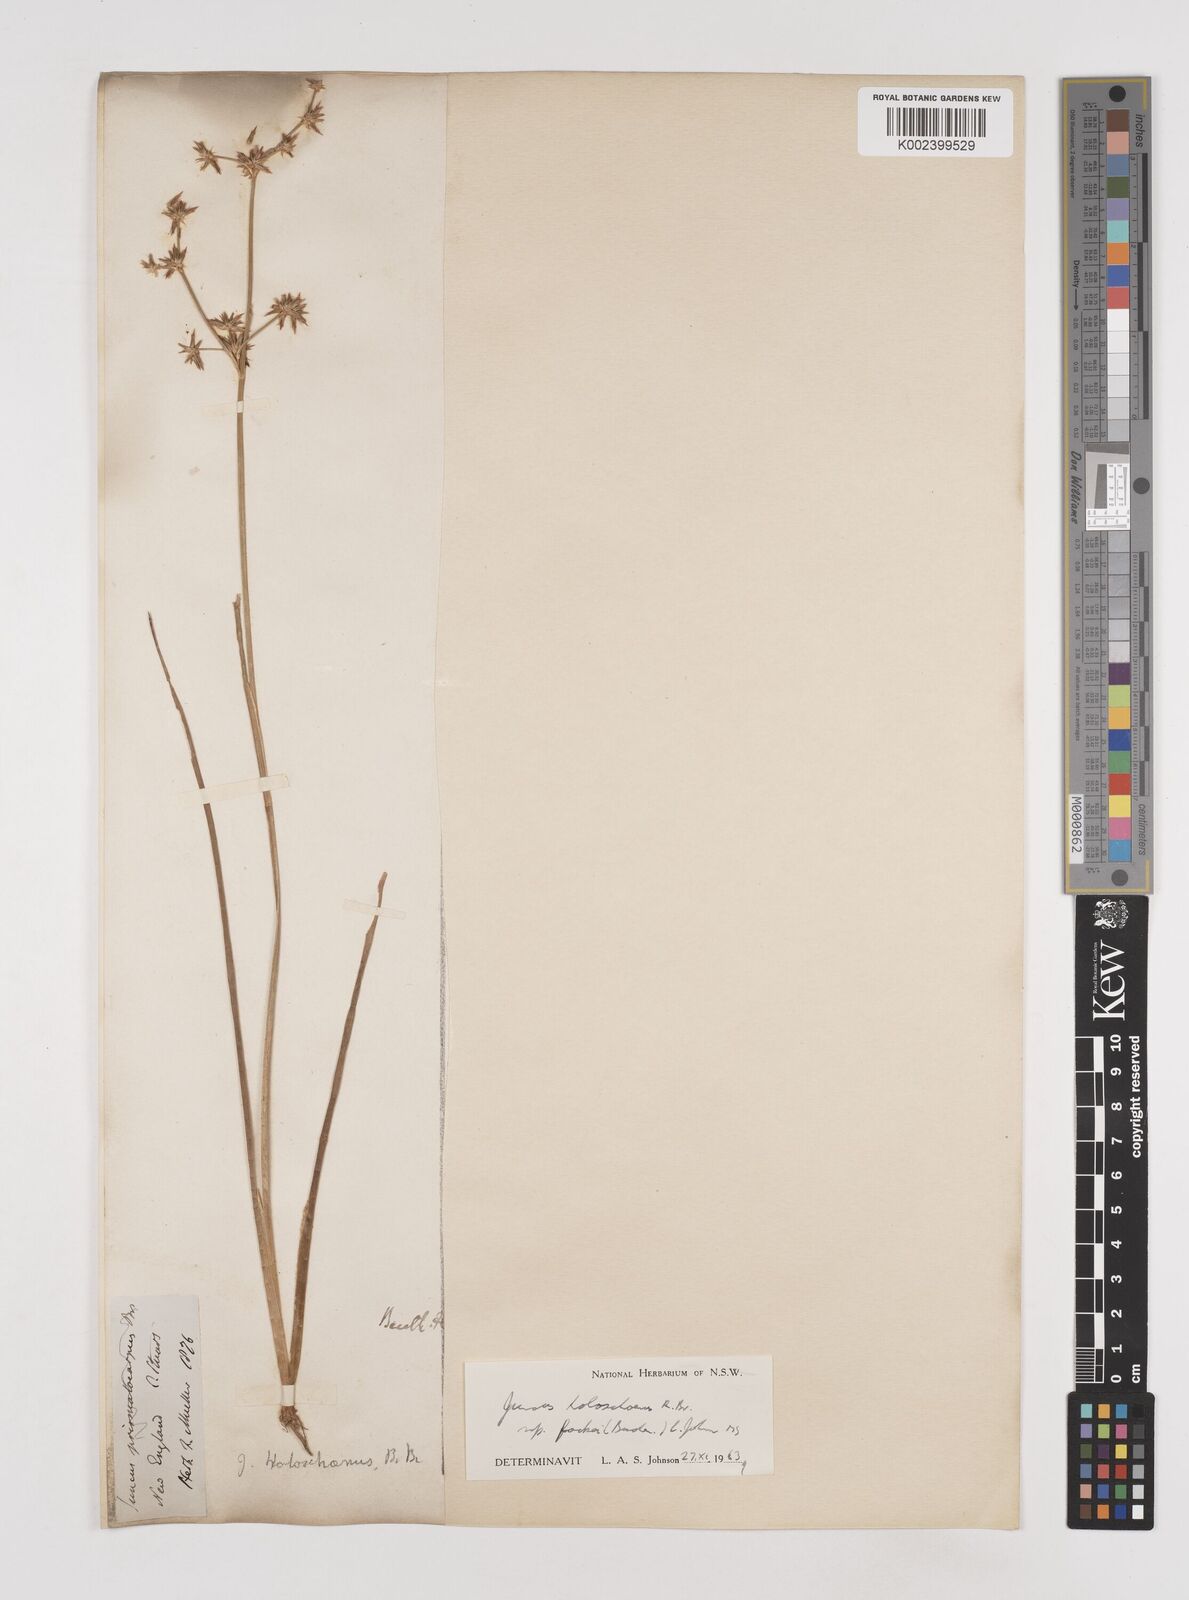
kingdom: Plantae
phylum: Tracheophyta
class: Liliopsida
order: Poales
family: Juncaceae
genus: Juncus
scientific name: Juncus holoschoenus
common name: Joint-leaf rush
